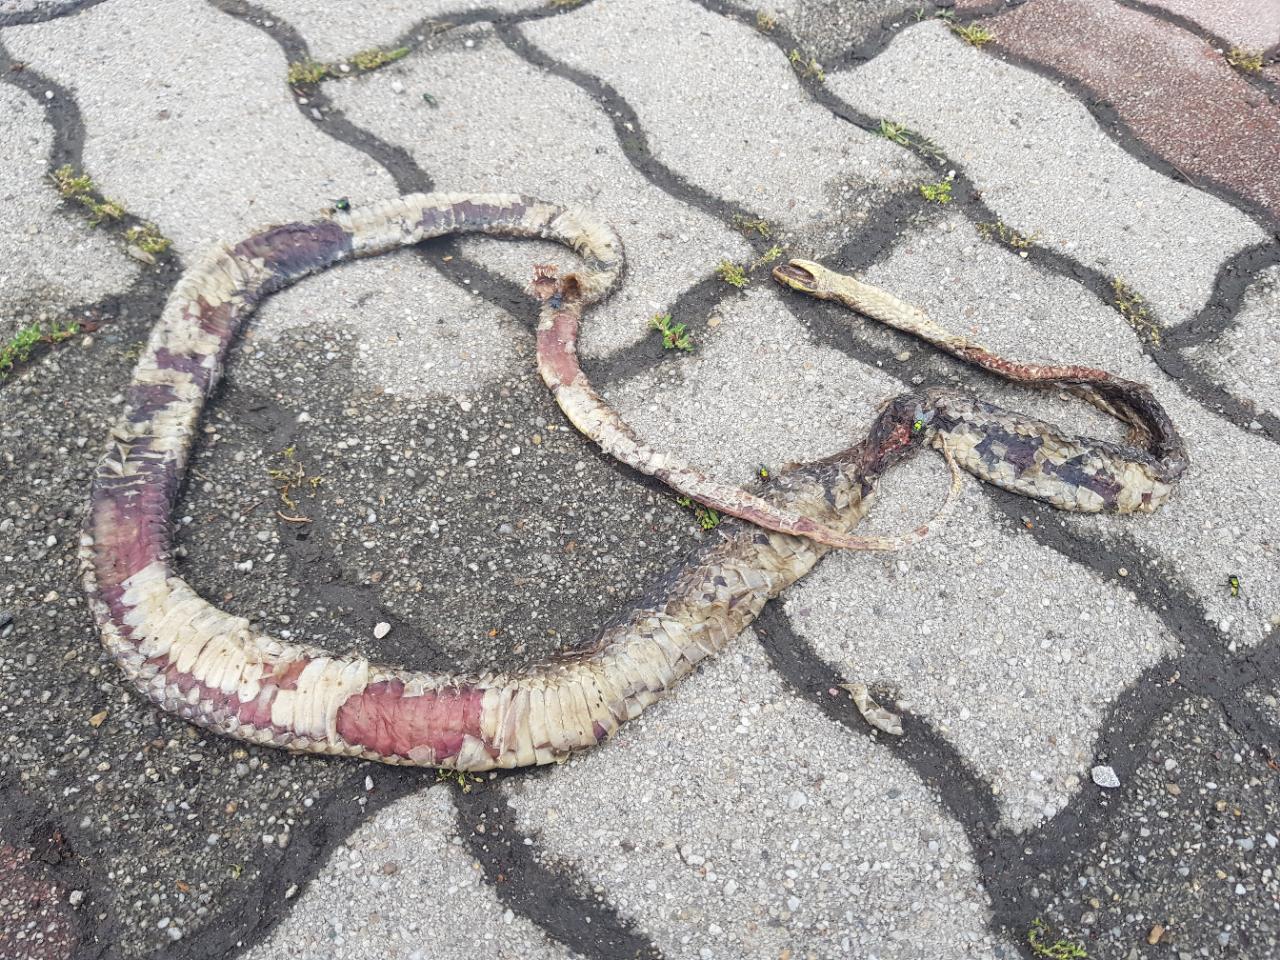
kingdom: Animalia
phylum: Chordata
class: Squamata
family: Colubridae
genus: Zamenis
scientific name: Zamenis longissimus
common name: Aesculapean snake
